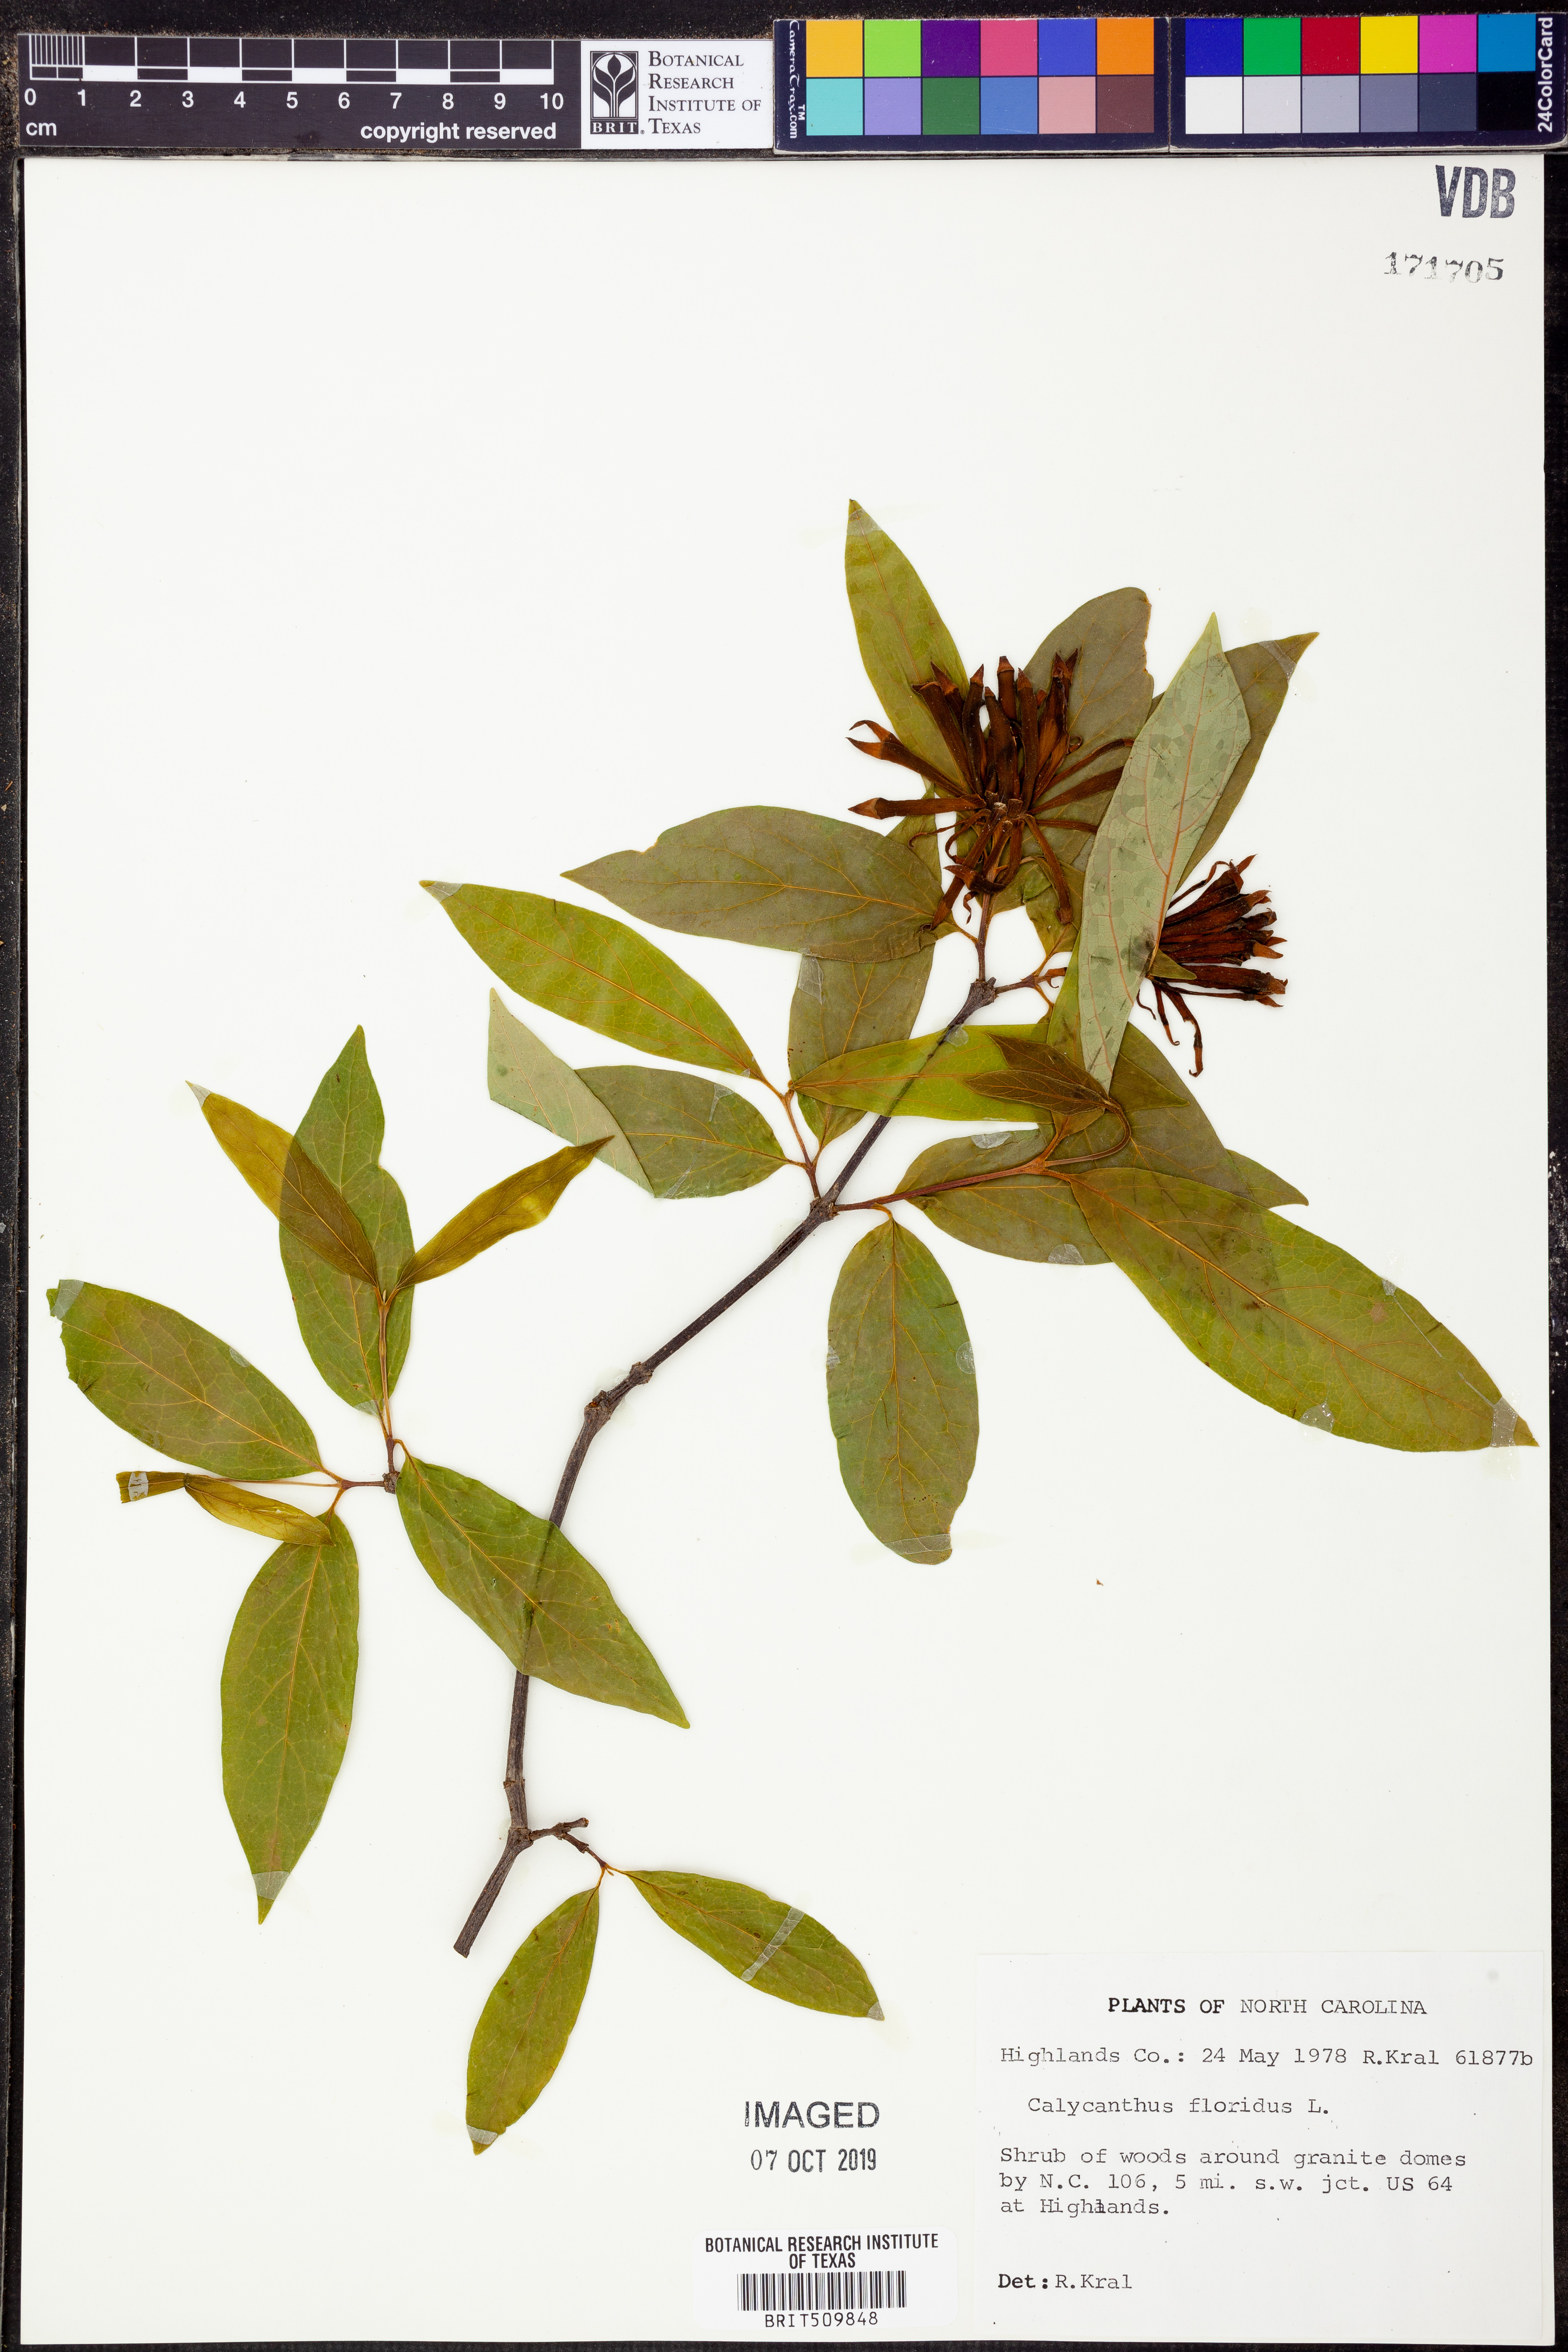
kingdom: Plantae
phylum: Tracheophyta
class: Magnoliopsida
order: Laurales
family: Calycanthaceae
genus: Calycanthus
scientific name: Calycanthus floridus
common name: Carolina-allspice
